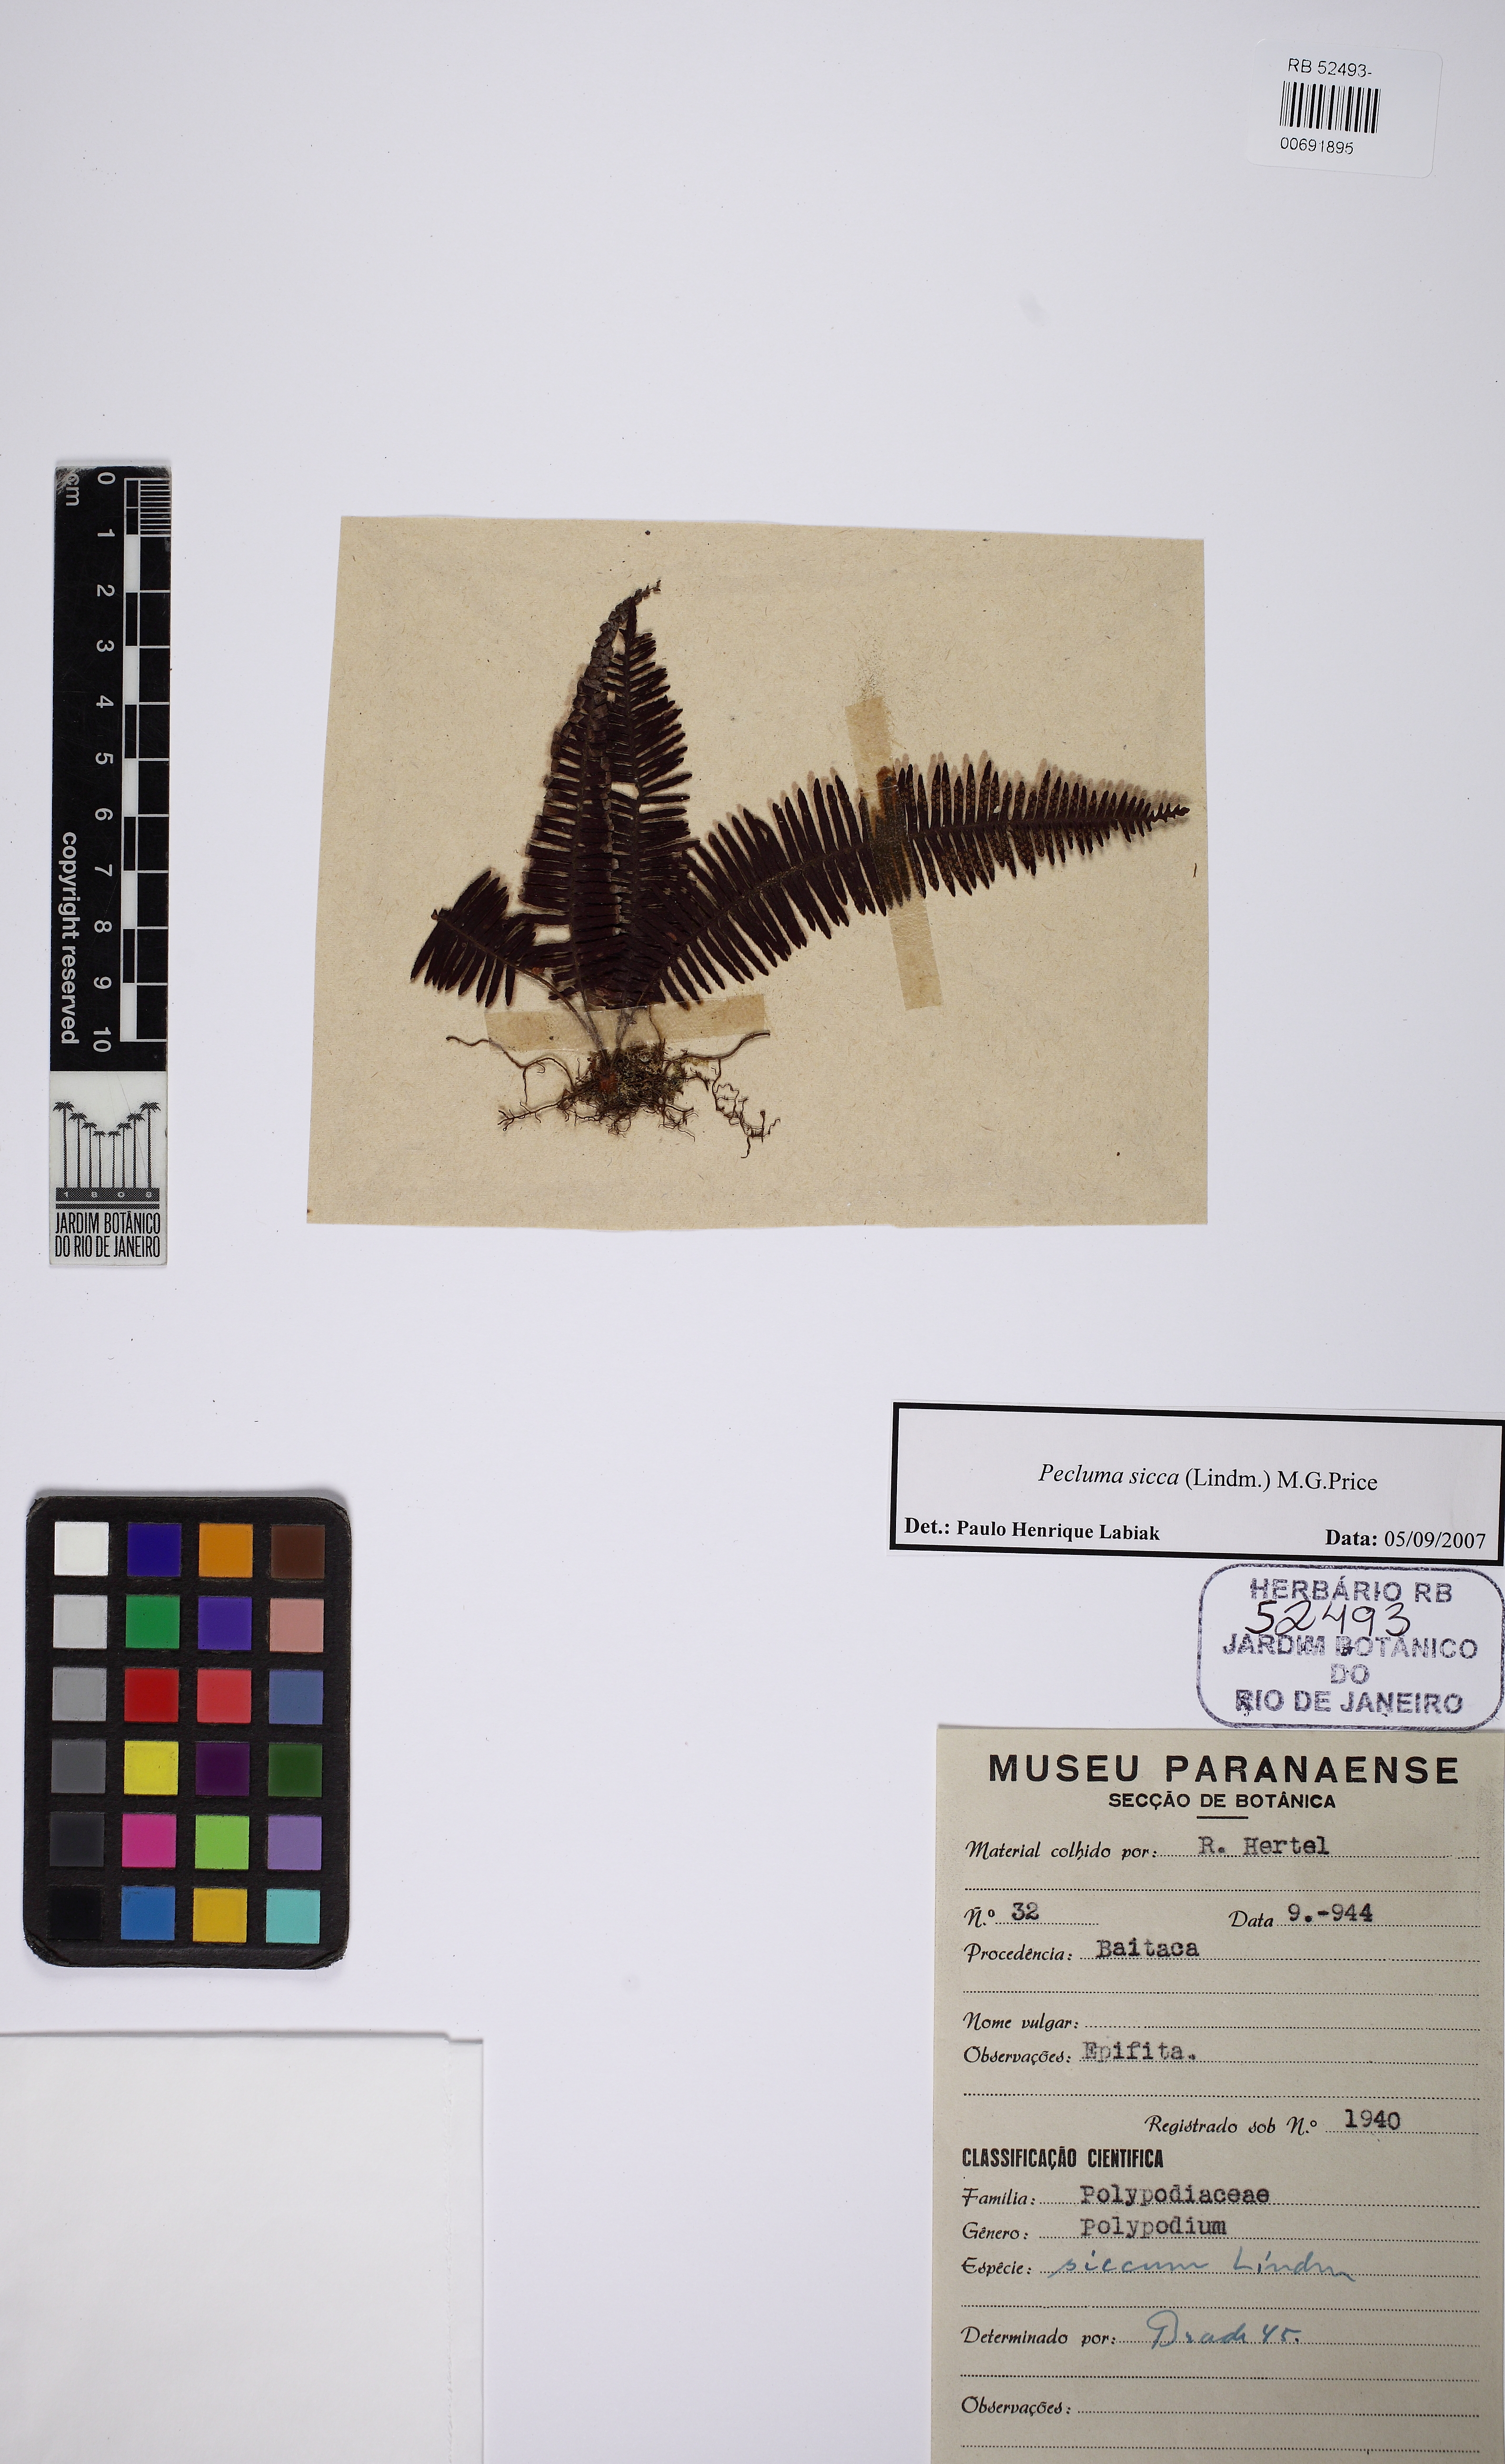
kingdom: Plantae
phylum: Tracheophyta
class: Polypodiopsida
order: Polypodiales
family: Polypodiaceae
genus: Pecluma
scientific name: Pecluma sicca
